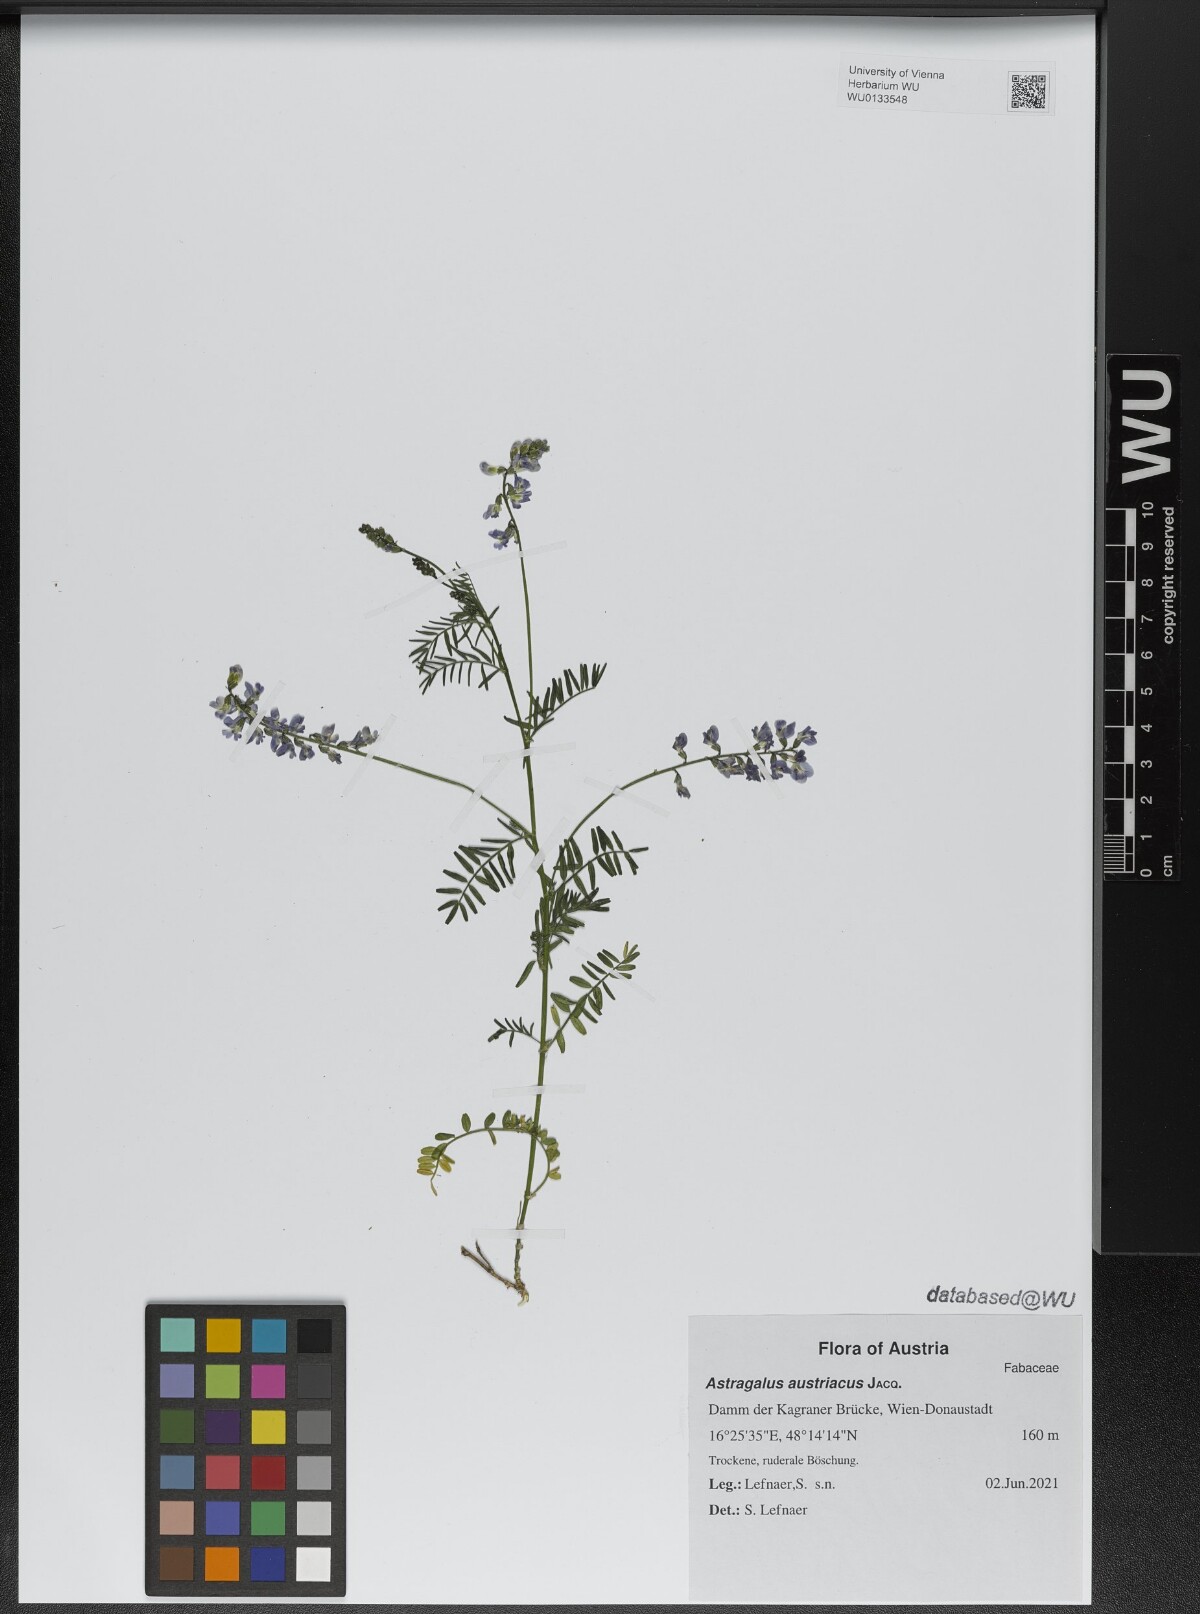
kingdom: Plantae
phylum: Tracheophyta
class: Magnoliopsida
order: Fabales
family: Fabaceae
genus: Astragalus
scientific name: Astragalus austriacus
